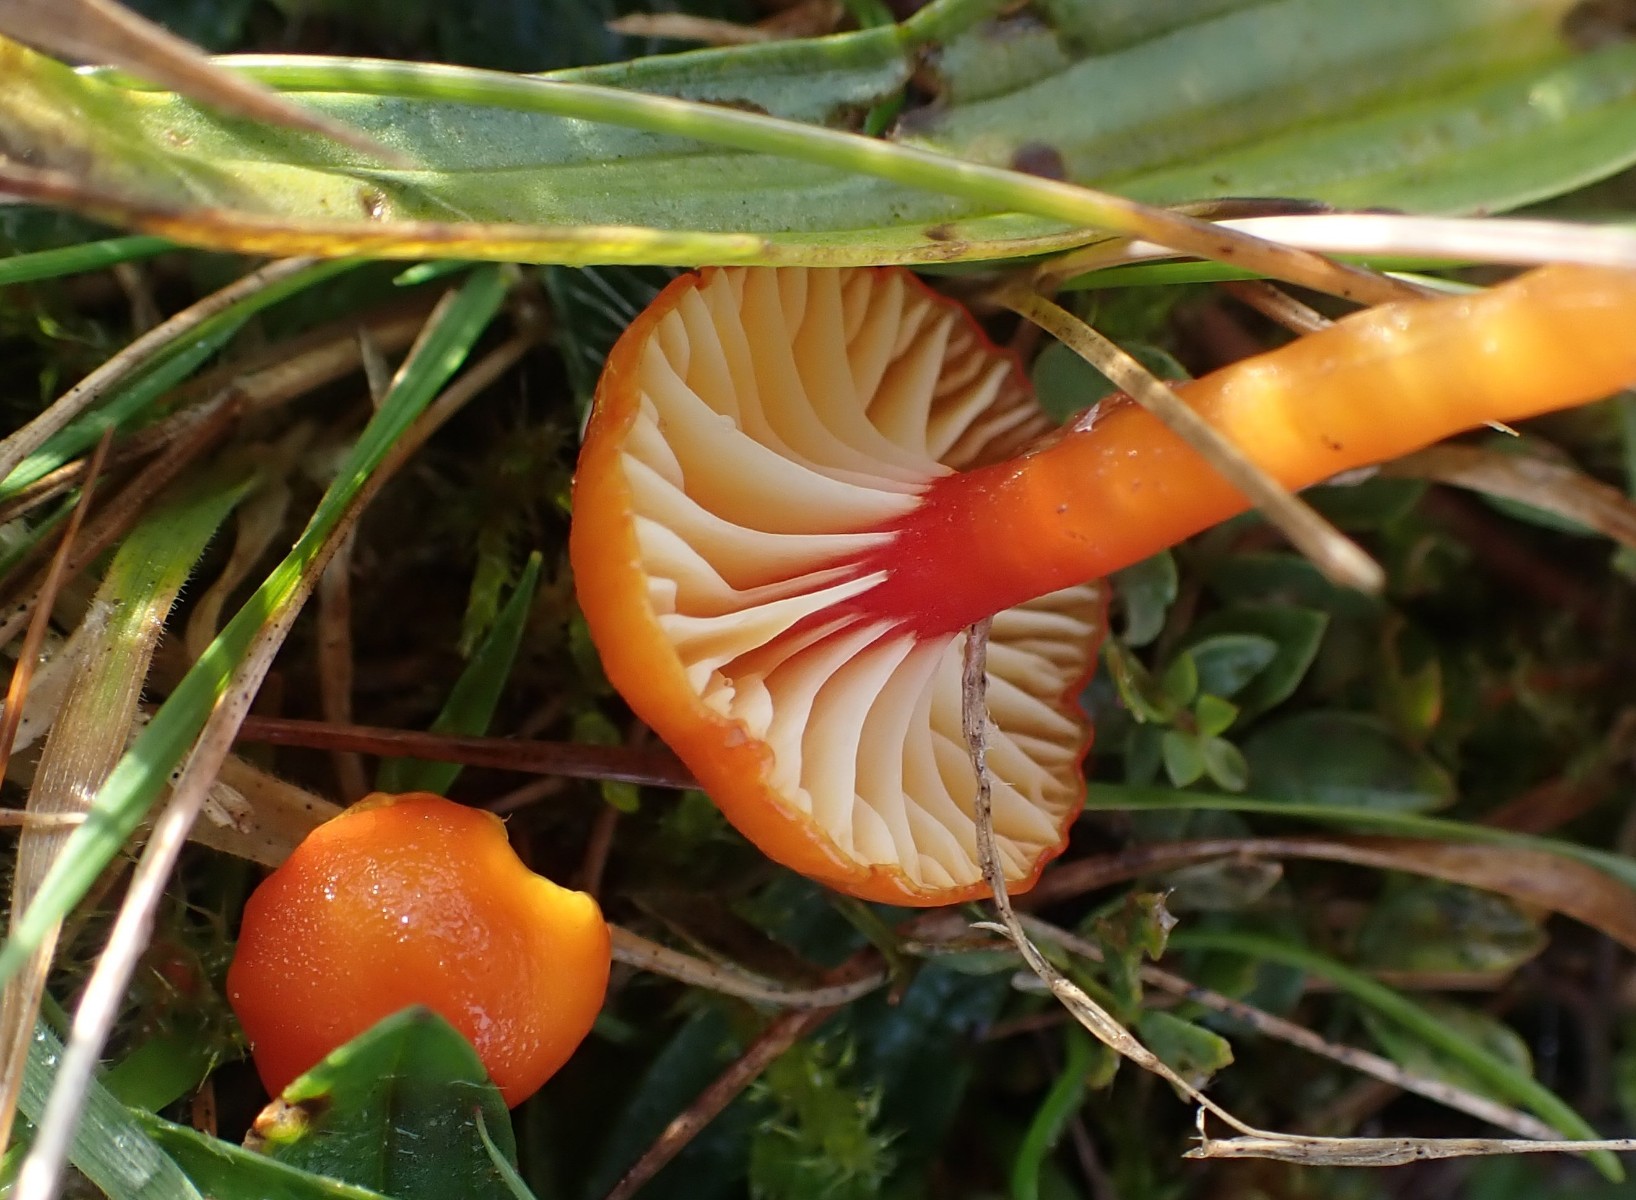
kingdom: Fungi
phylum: Basidiomycota
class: Agaricomycetes
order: Agaricales
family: Hygrophoraceae
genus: Hygrocybe
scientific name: Hygrocybe insipida
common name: liden vokshat
